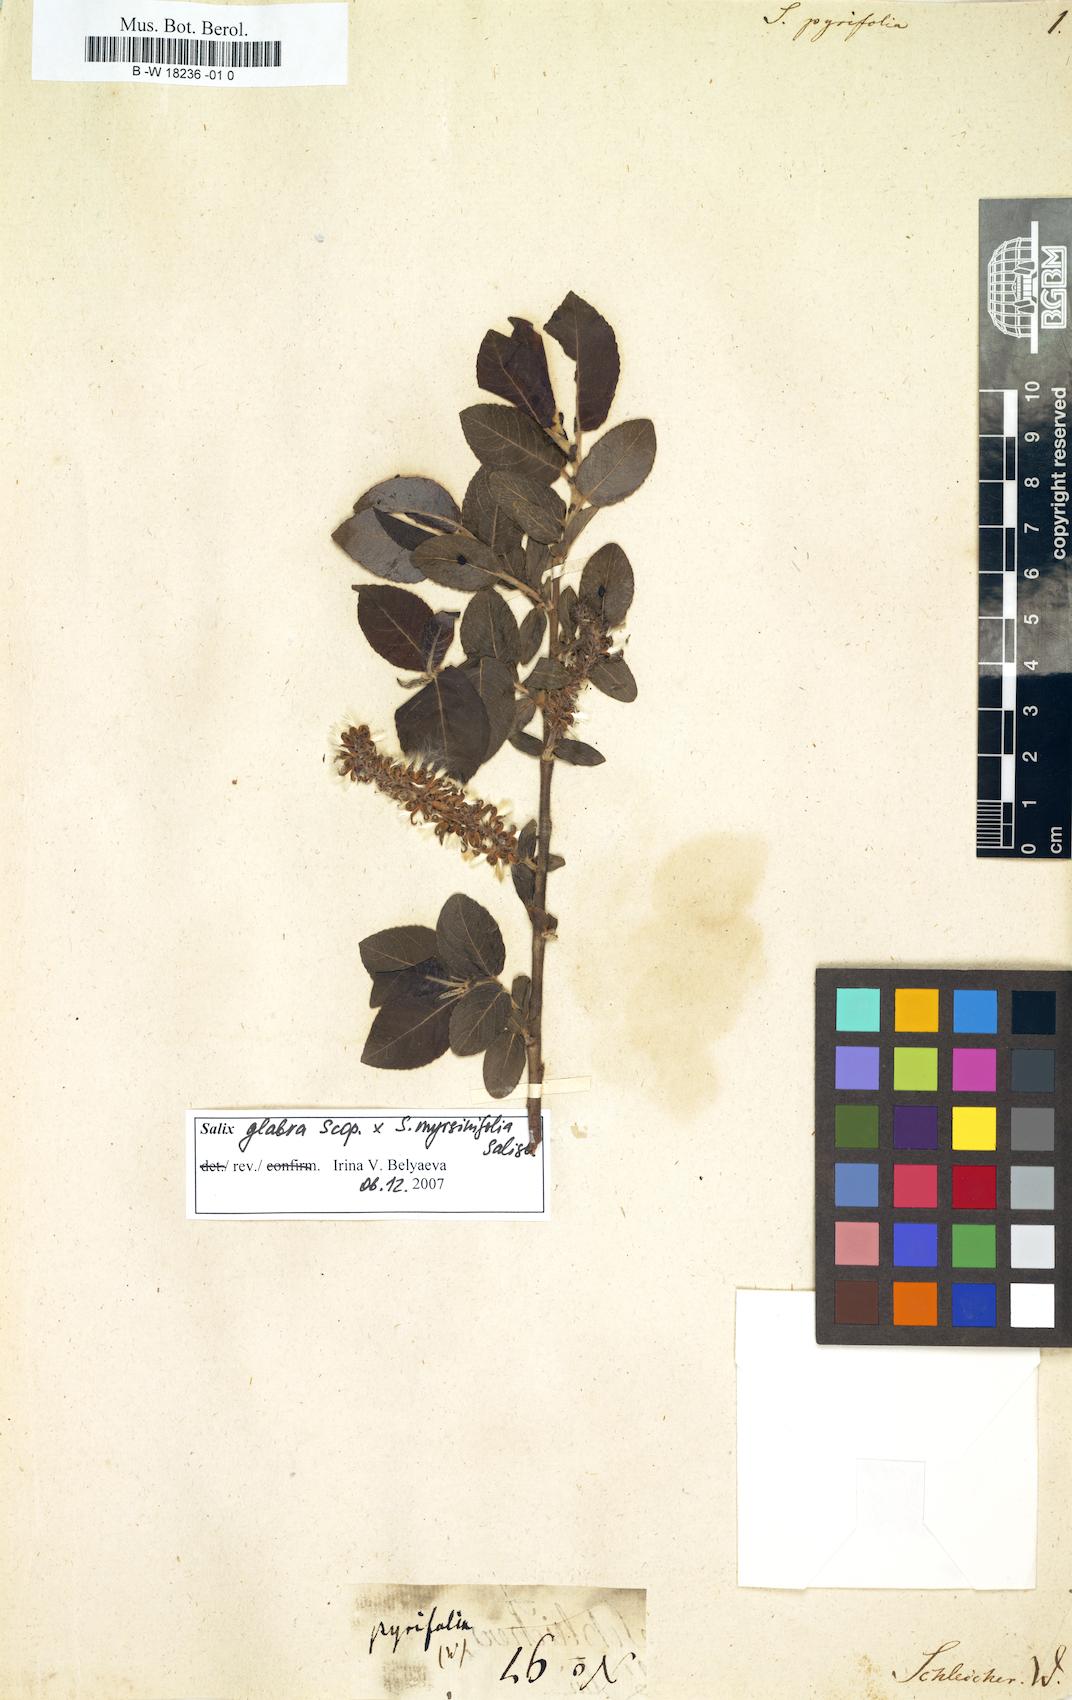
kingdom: Plantae
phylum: Tracheophyta
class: Magnoliopsida
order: Malpighiales
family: Salicaceae
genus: Salix
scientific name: Salix pyrifolia
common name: Balsam willow
